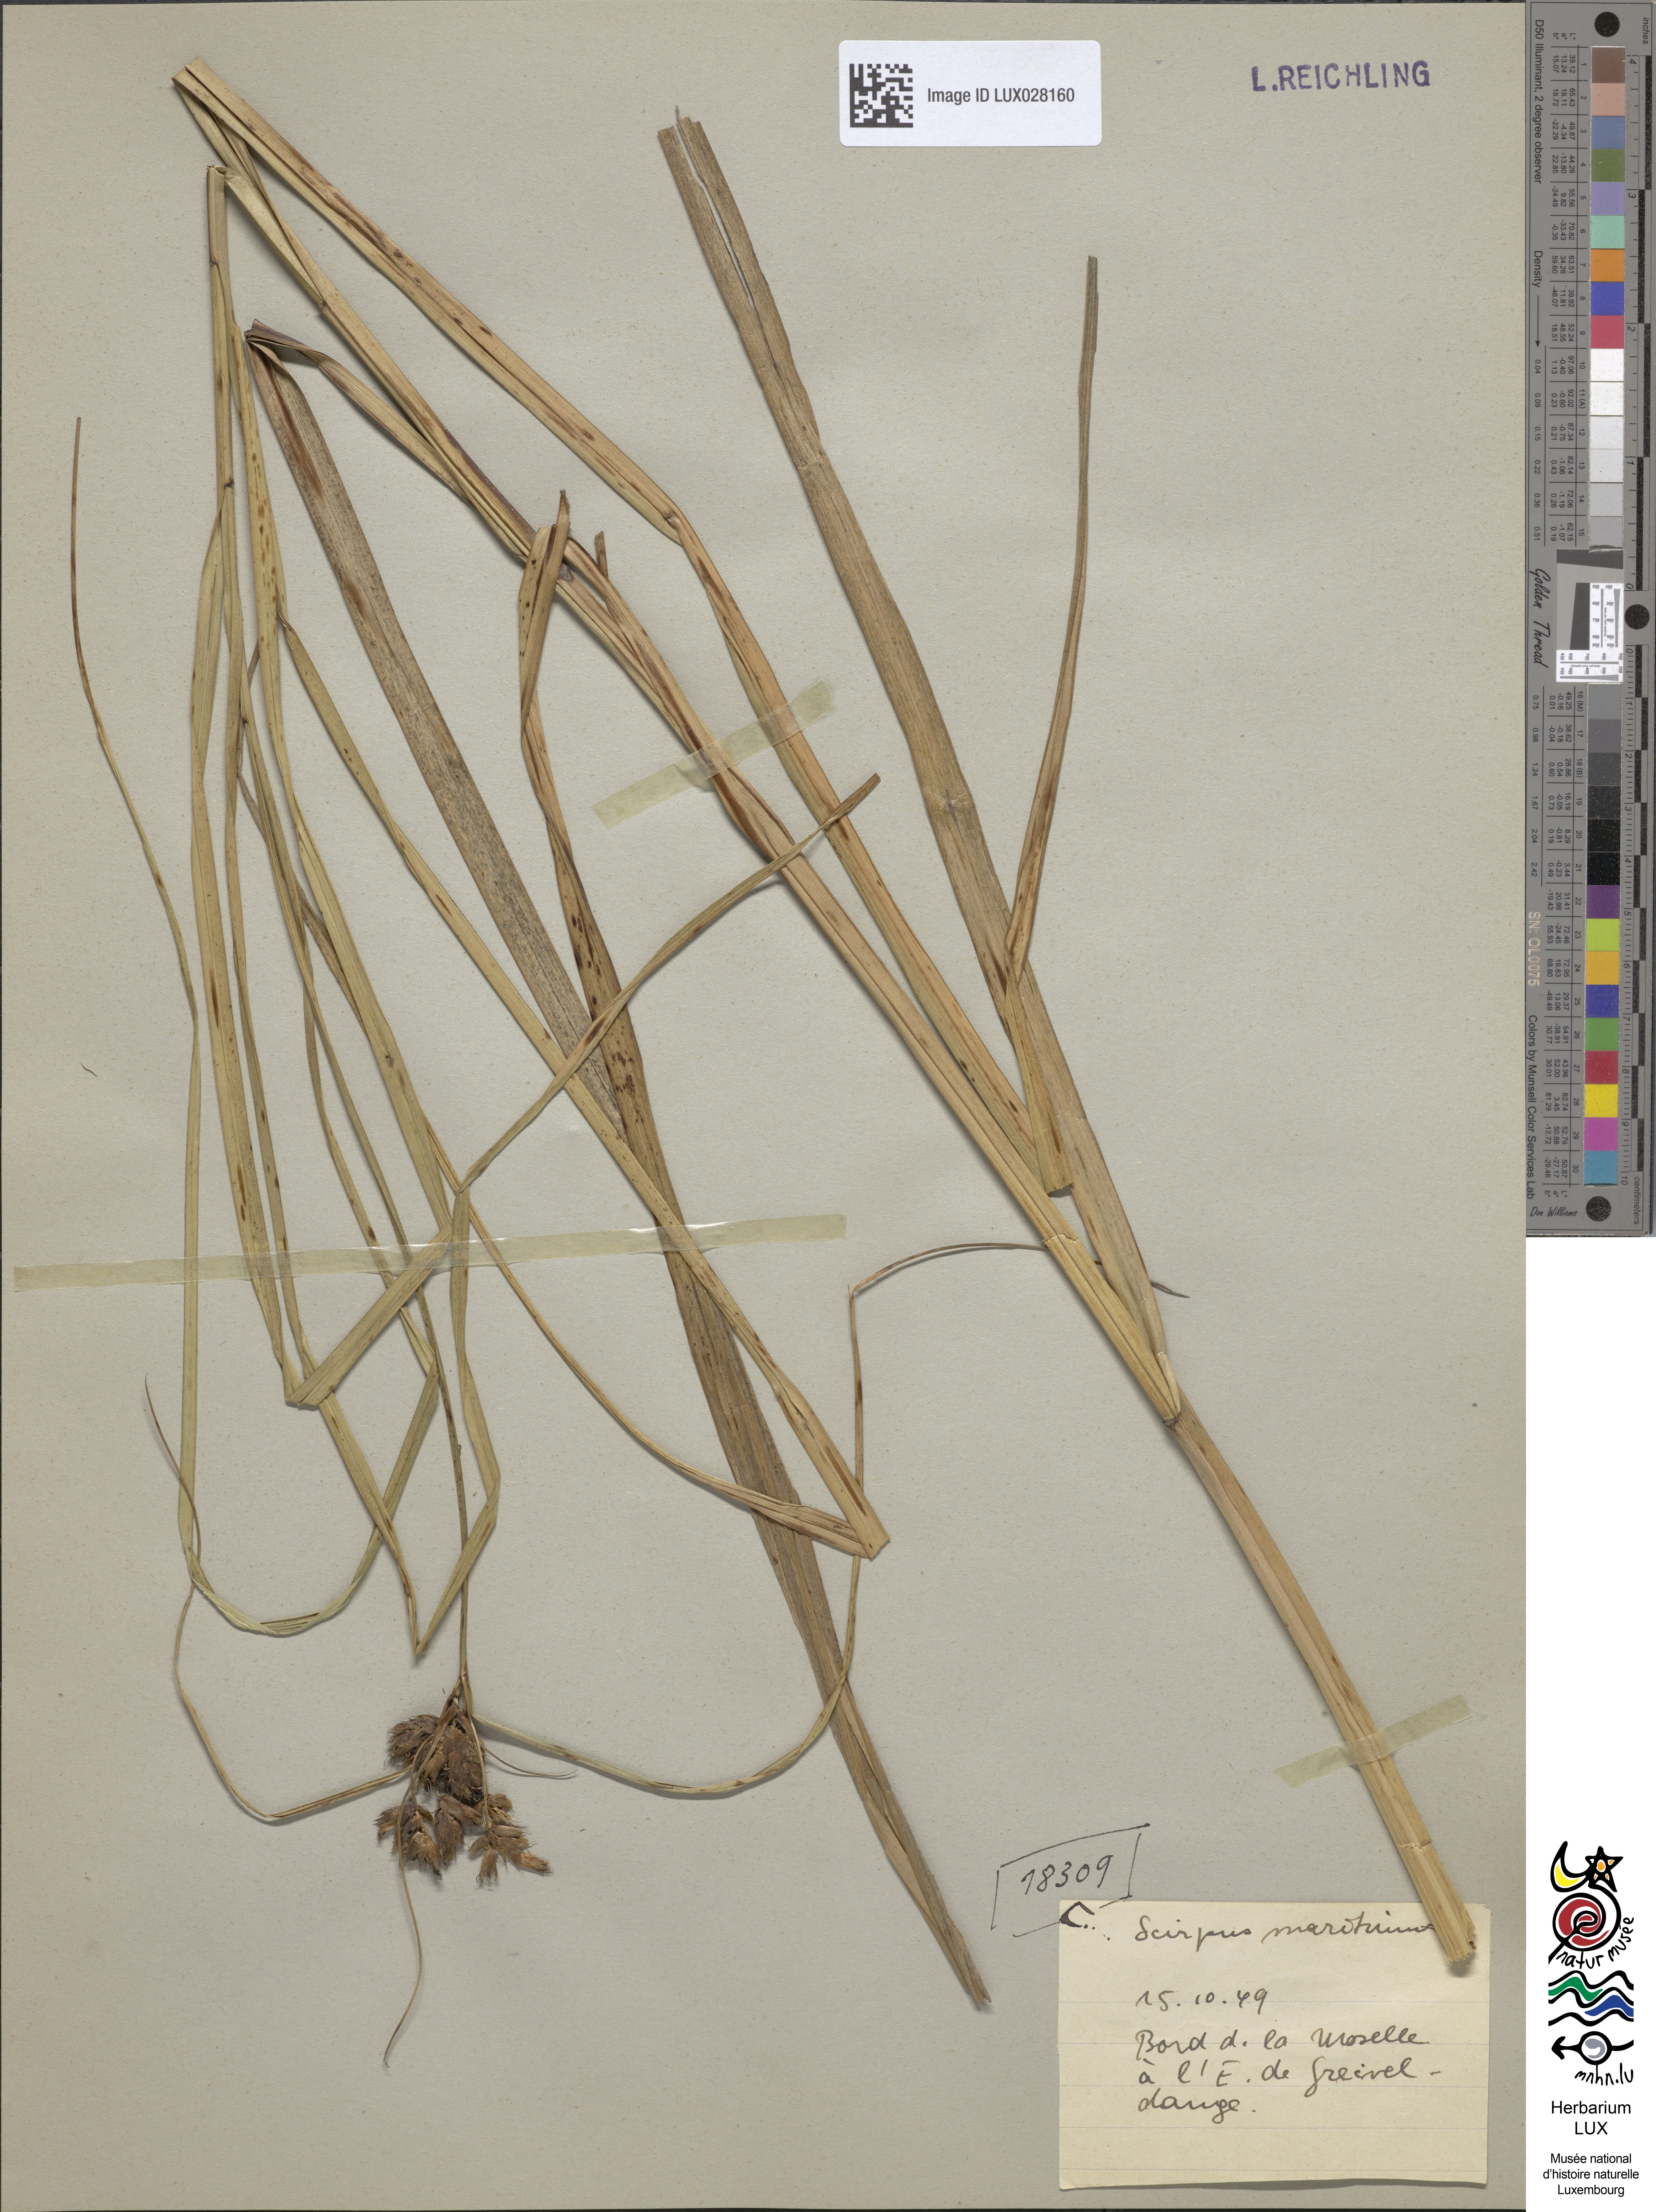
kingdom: Plantae
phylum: Tracheophyta
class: Liliopsida
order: Poales
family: Cyperaceae
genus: Bolboschoenus
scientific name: Bolboschoenus maritimus
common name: Sea club-rush
